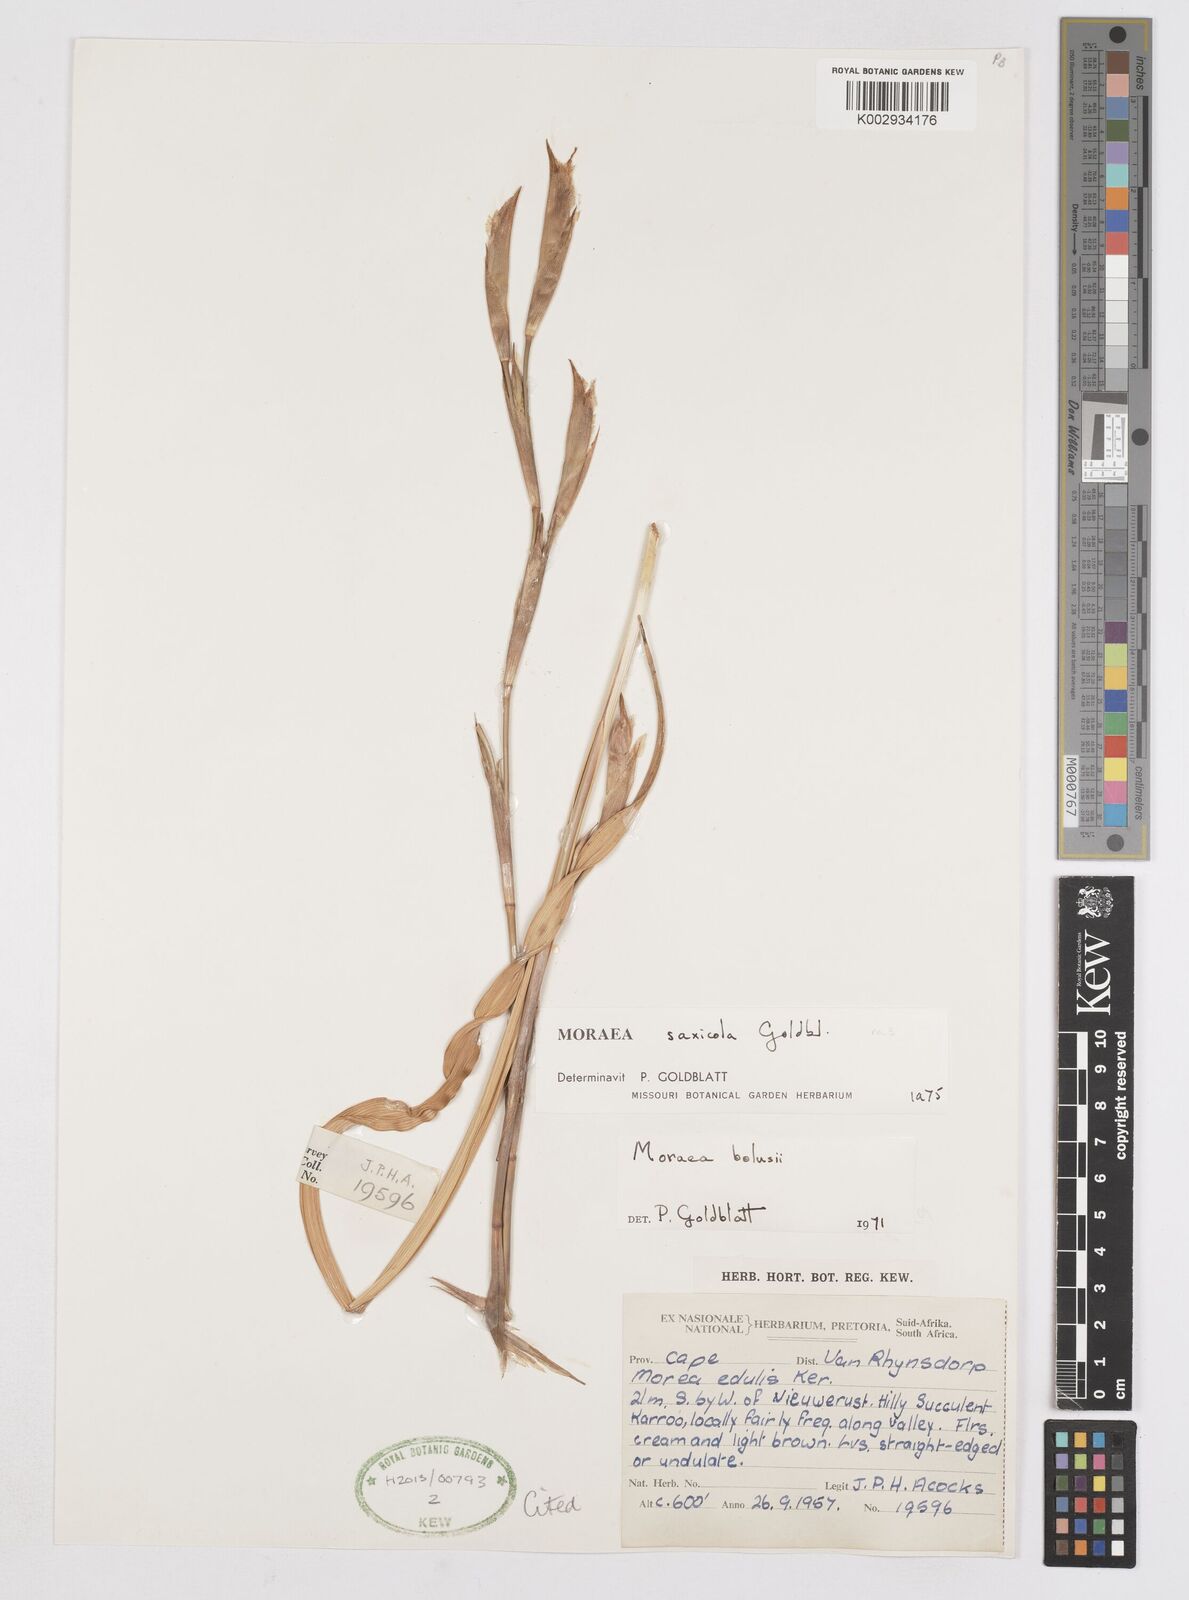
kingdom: Plantae
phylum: Tracheophyta
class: Liliopsida
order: Asparagales
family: Iridaceae
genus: Moraea
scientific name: Moraea saxicola
